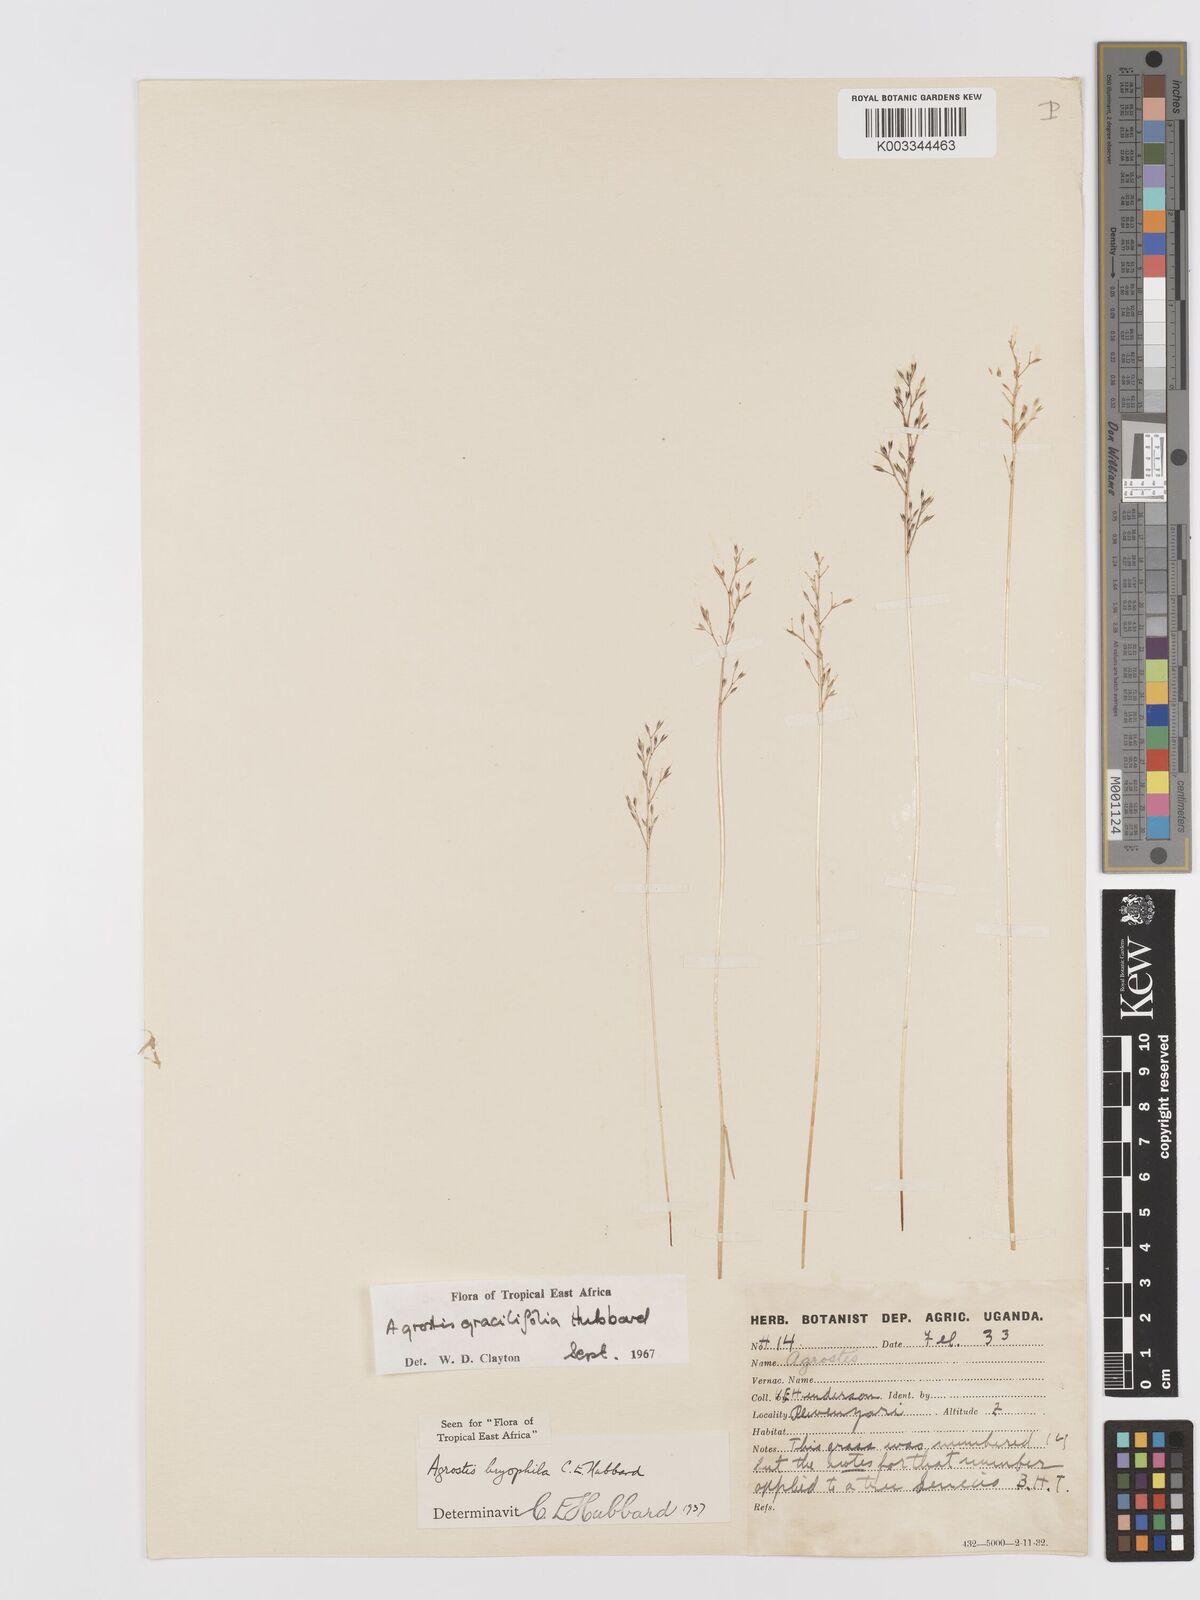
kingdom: Plantae
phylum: Tracheophyta
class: Liliopsida
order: Poales
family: Poaceae
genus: Agrostis
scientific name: Agrostis gracilifolia
